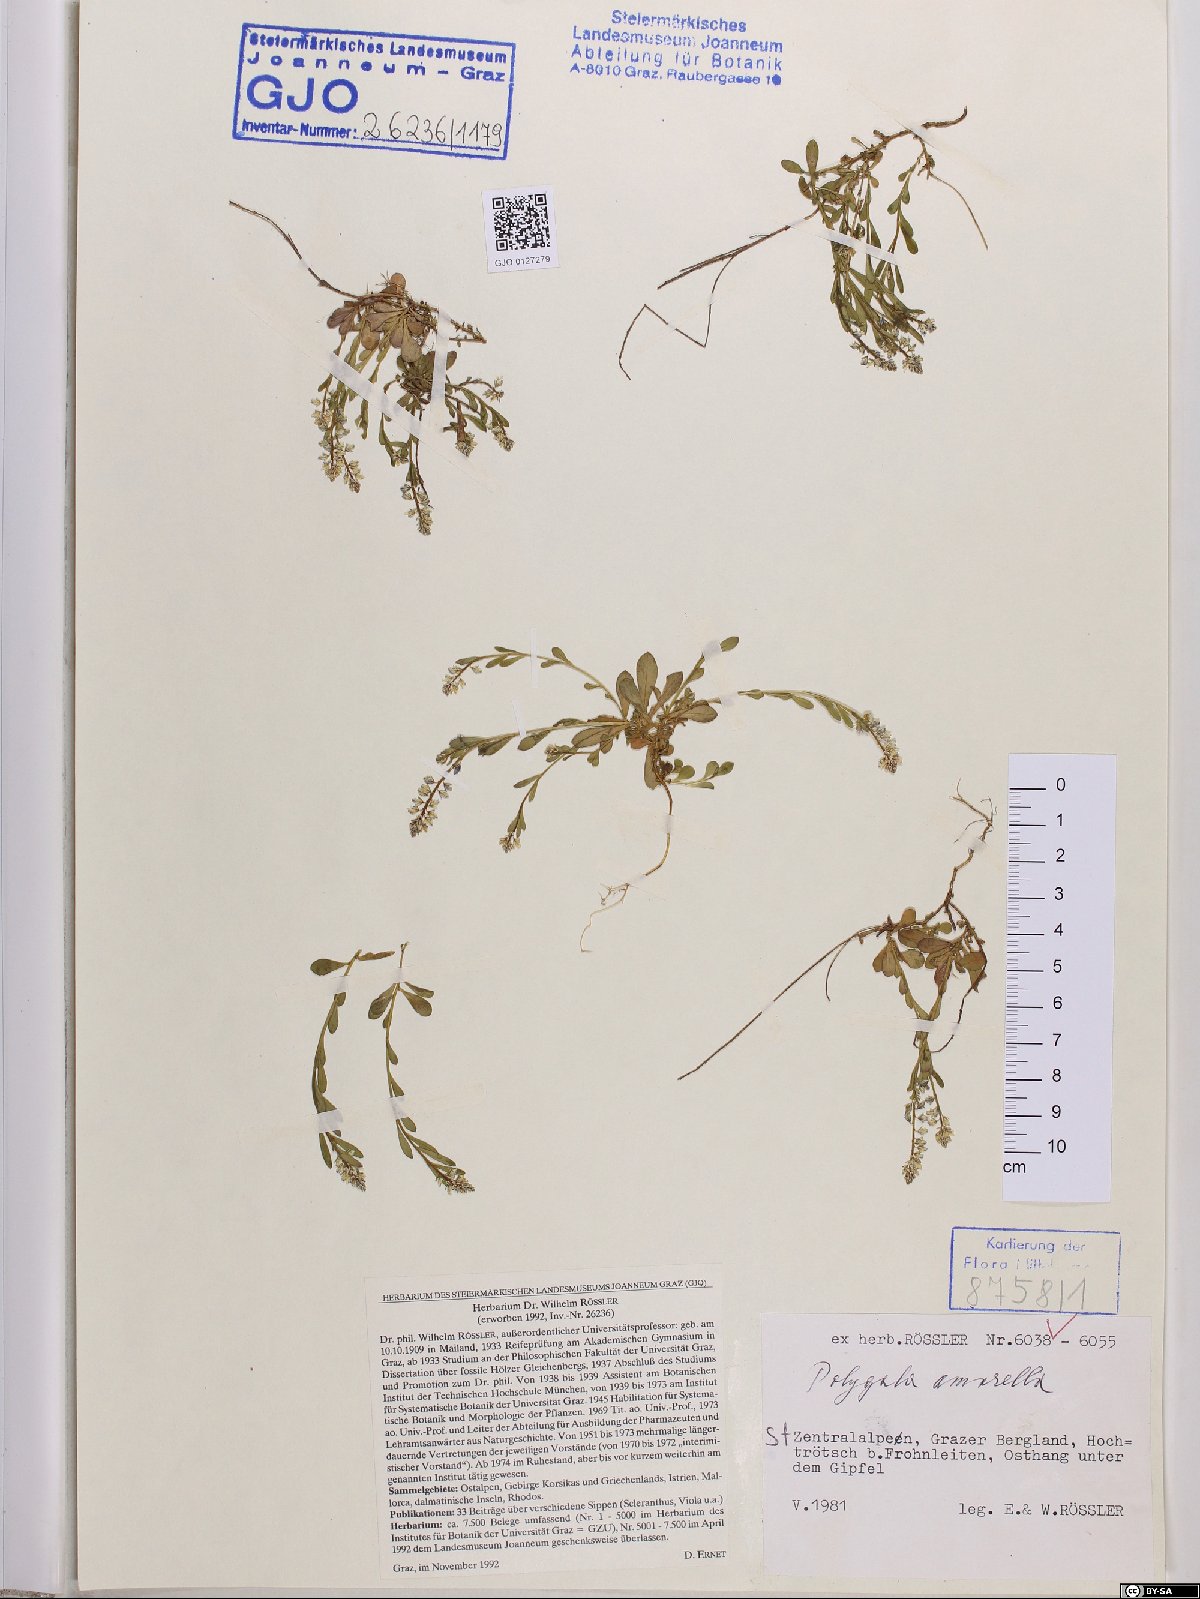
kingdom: Plantae
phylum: Tracheophyta
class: Magnoliopsida
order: Fabales
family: Polygalaceae
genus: Polygala
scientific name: Polygala amarella
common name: Dwarf milkwort
